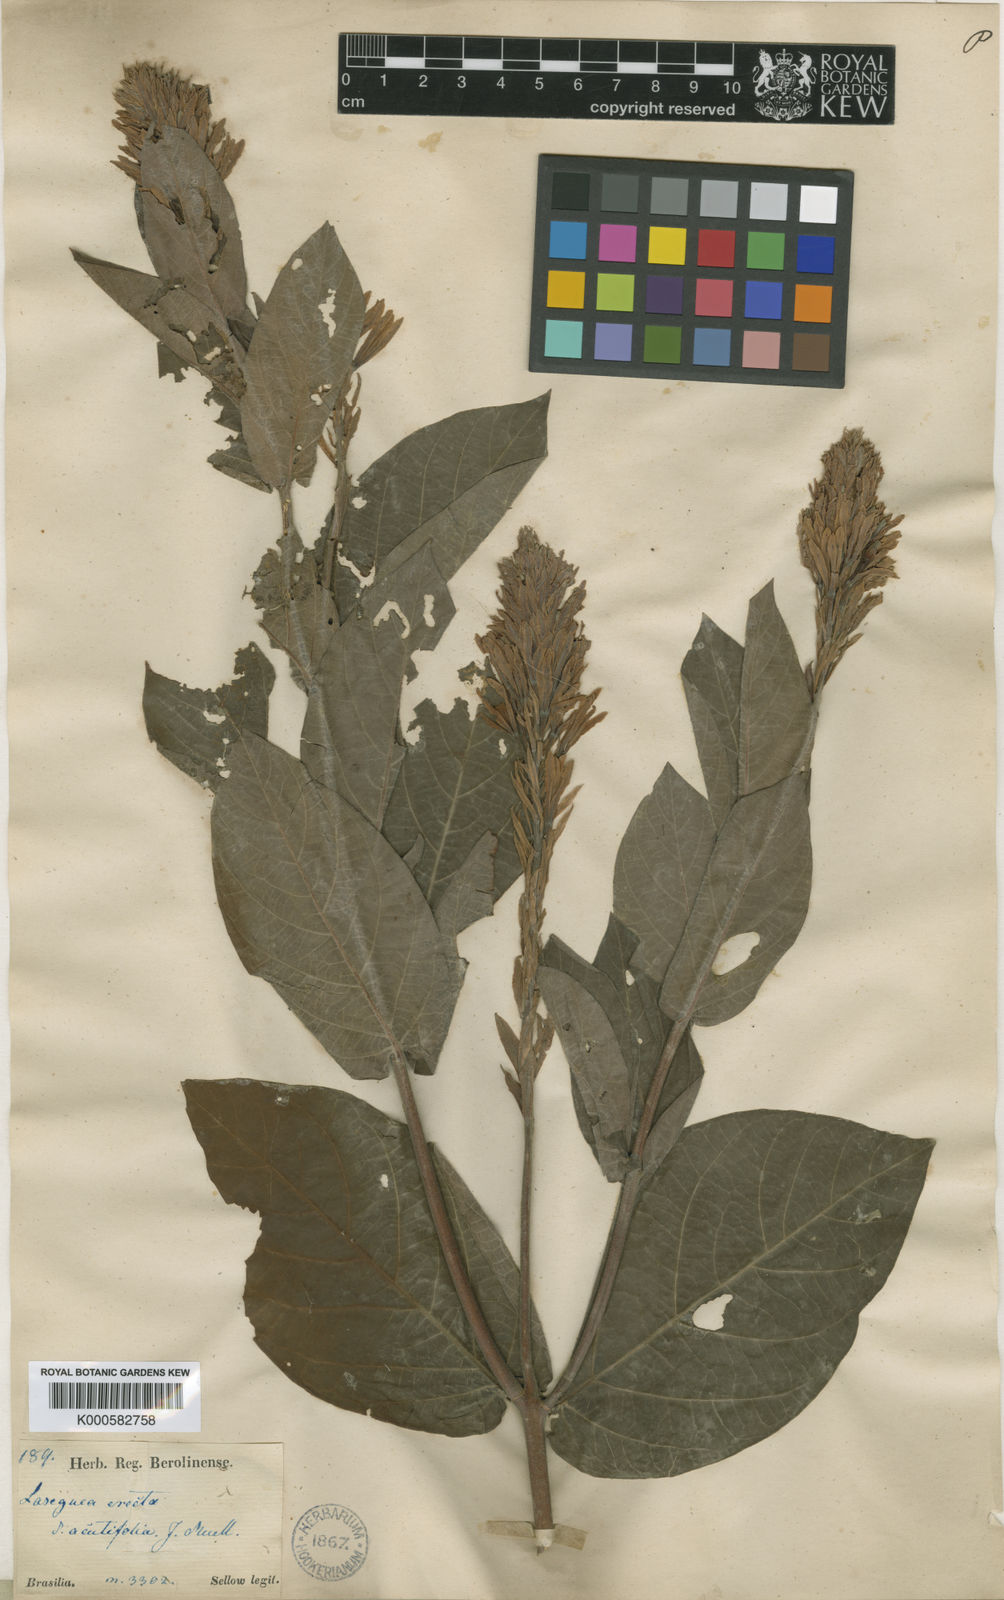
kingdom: Plantae
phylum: Tracheophyta
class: Magnoliopsida
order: Gentianales
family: Apocynaceae
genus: Mandevilla
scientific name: Mandevilla emarginata
